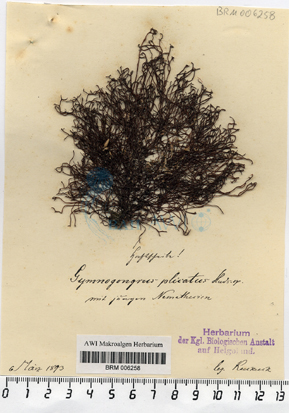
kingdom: Plantae
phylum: Rhodophyta
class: Florideophyceae
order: Ahnfeltiales
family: Ahnfeltiaceae
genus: Ahnfeltia
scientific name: Ahnfeltia plicata
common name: Landlady's wig
